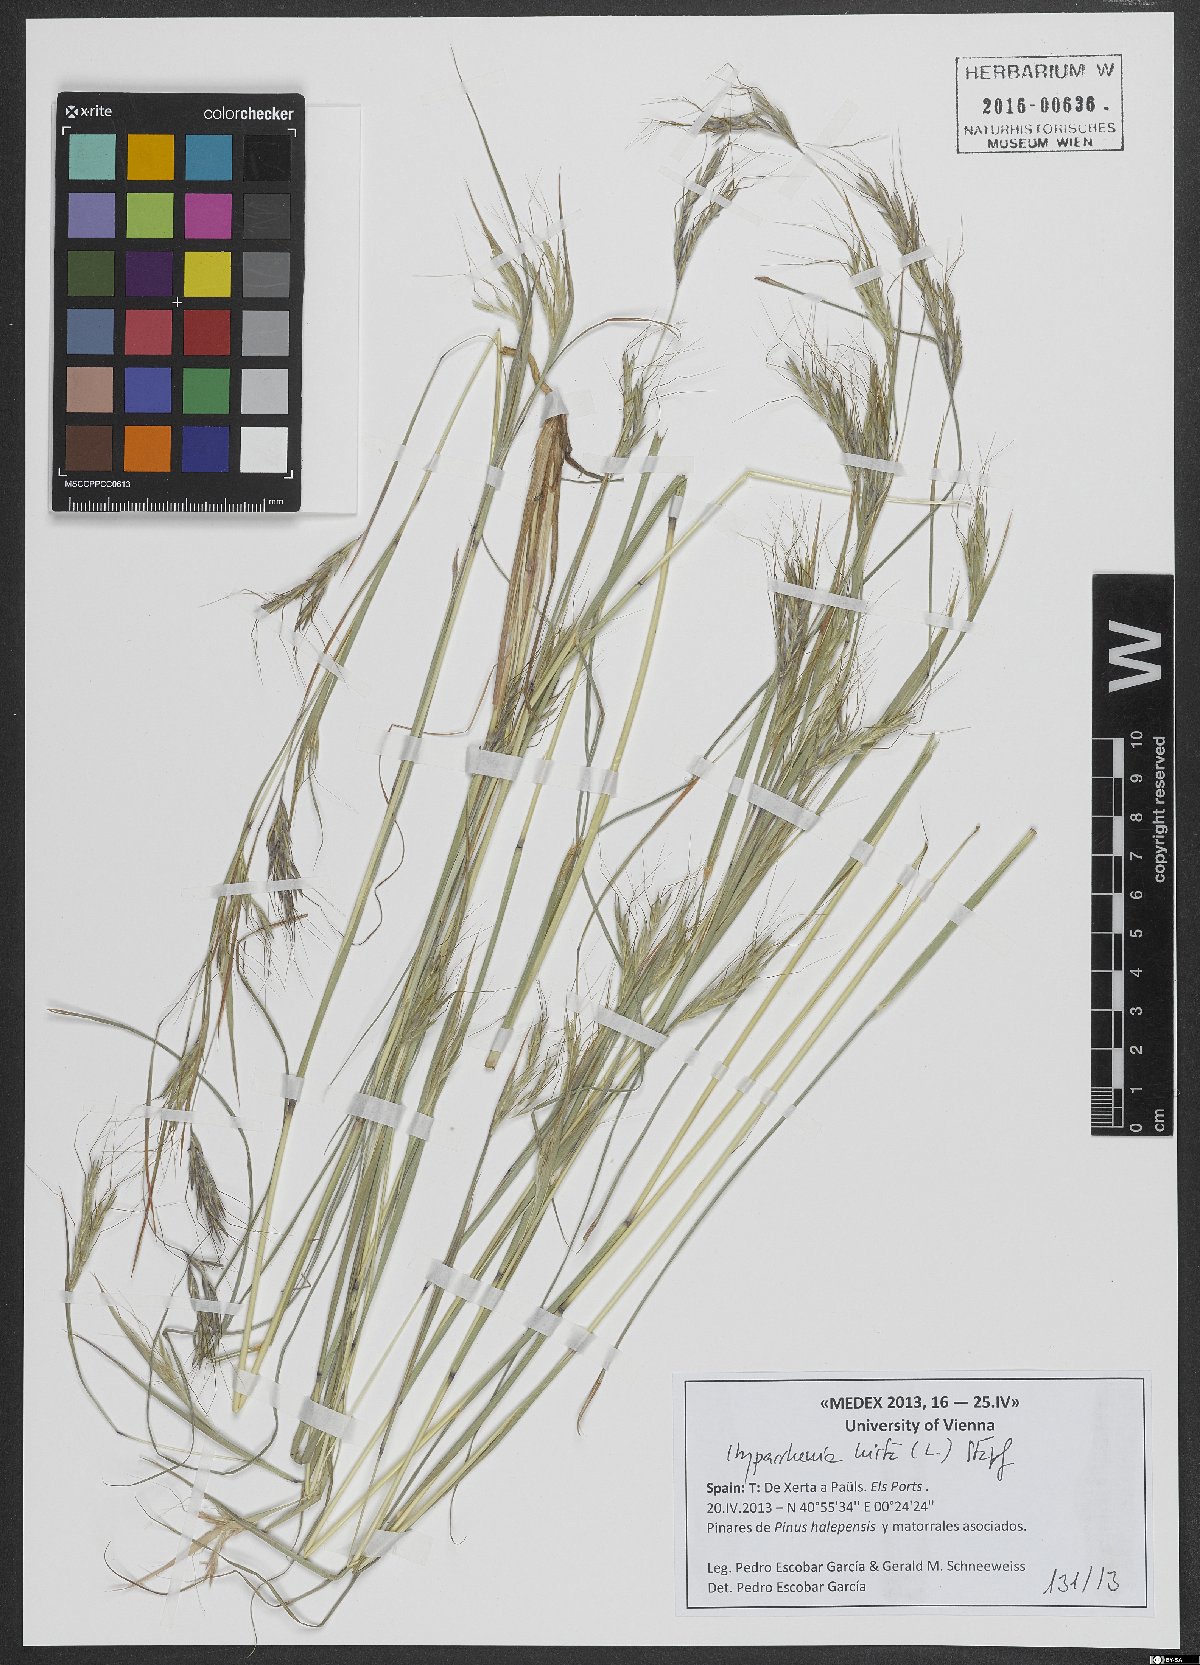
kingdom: Plantae
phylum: Tracheophyta
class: Liliopsida
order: Poales
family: Poaceae
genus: Hyparrhenia
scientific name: Hyparrhenia hirta
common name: Thatching grass
